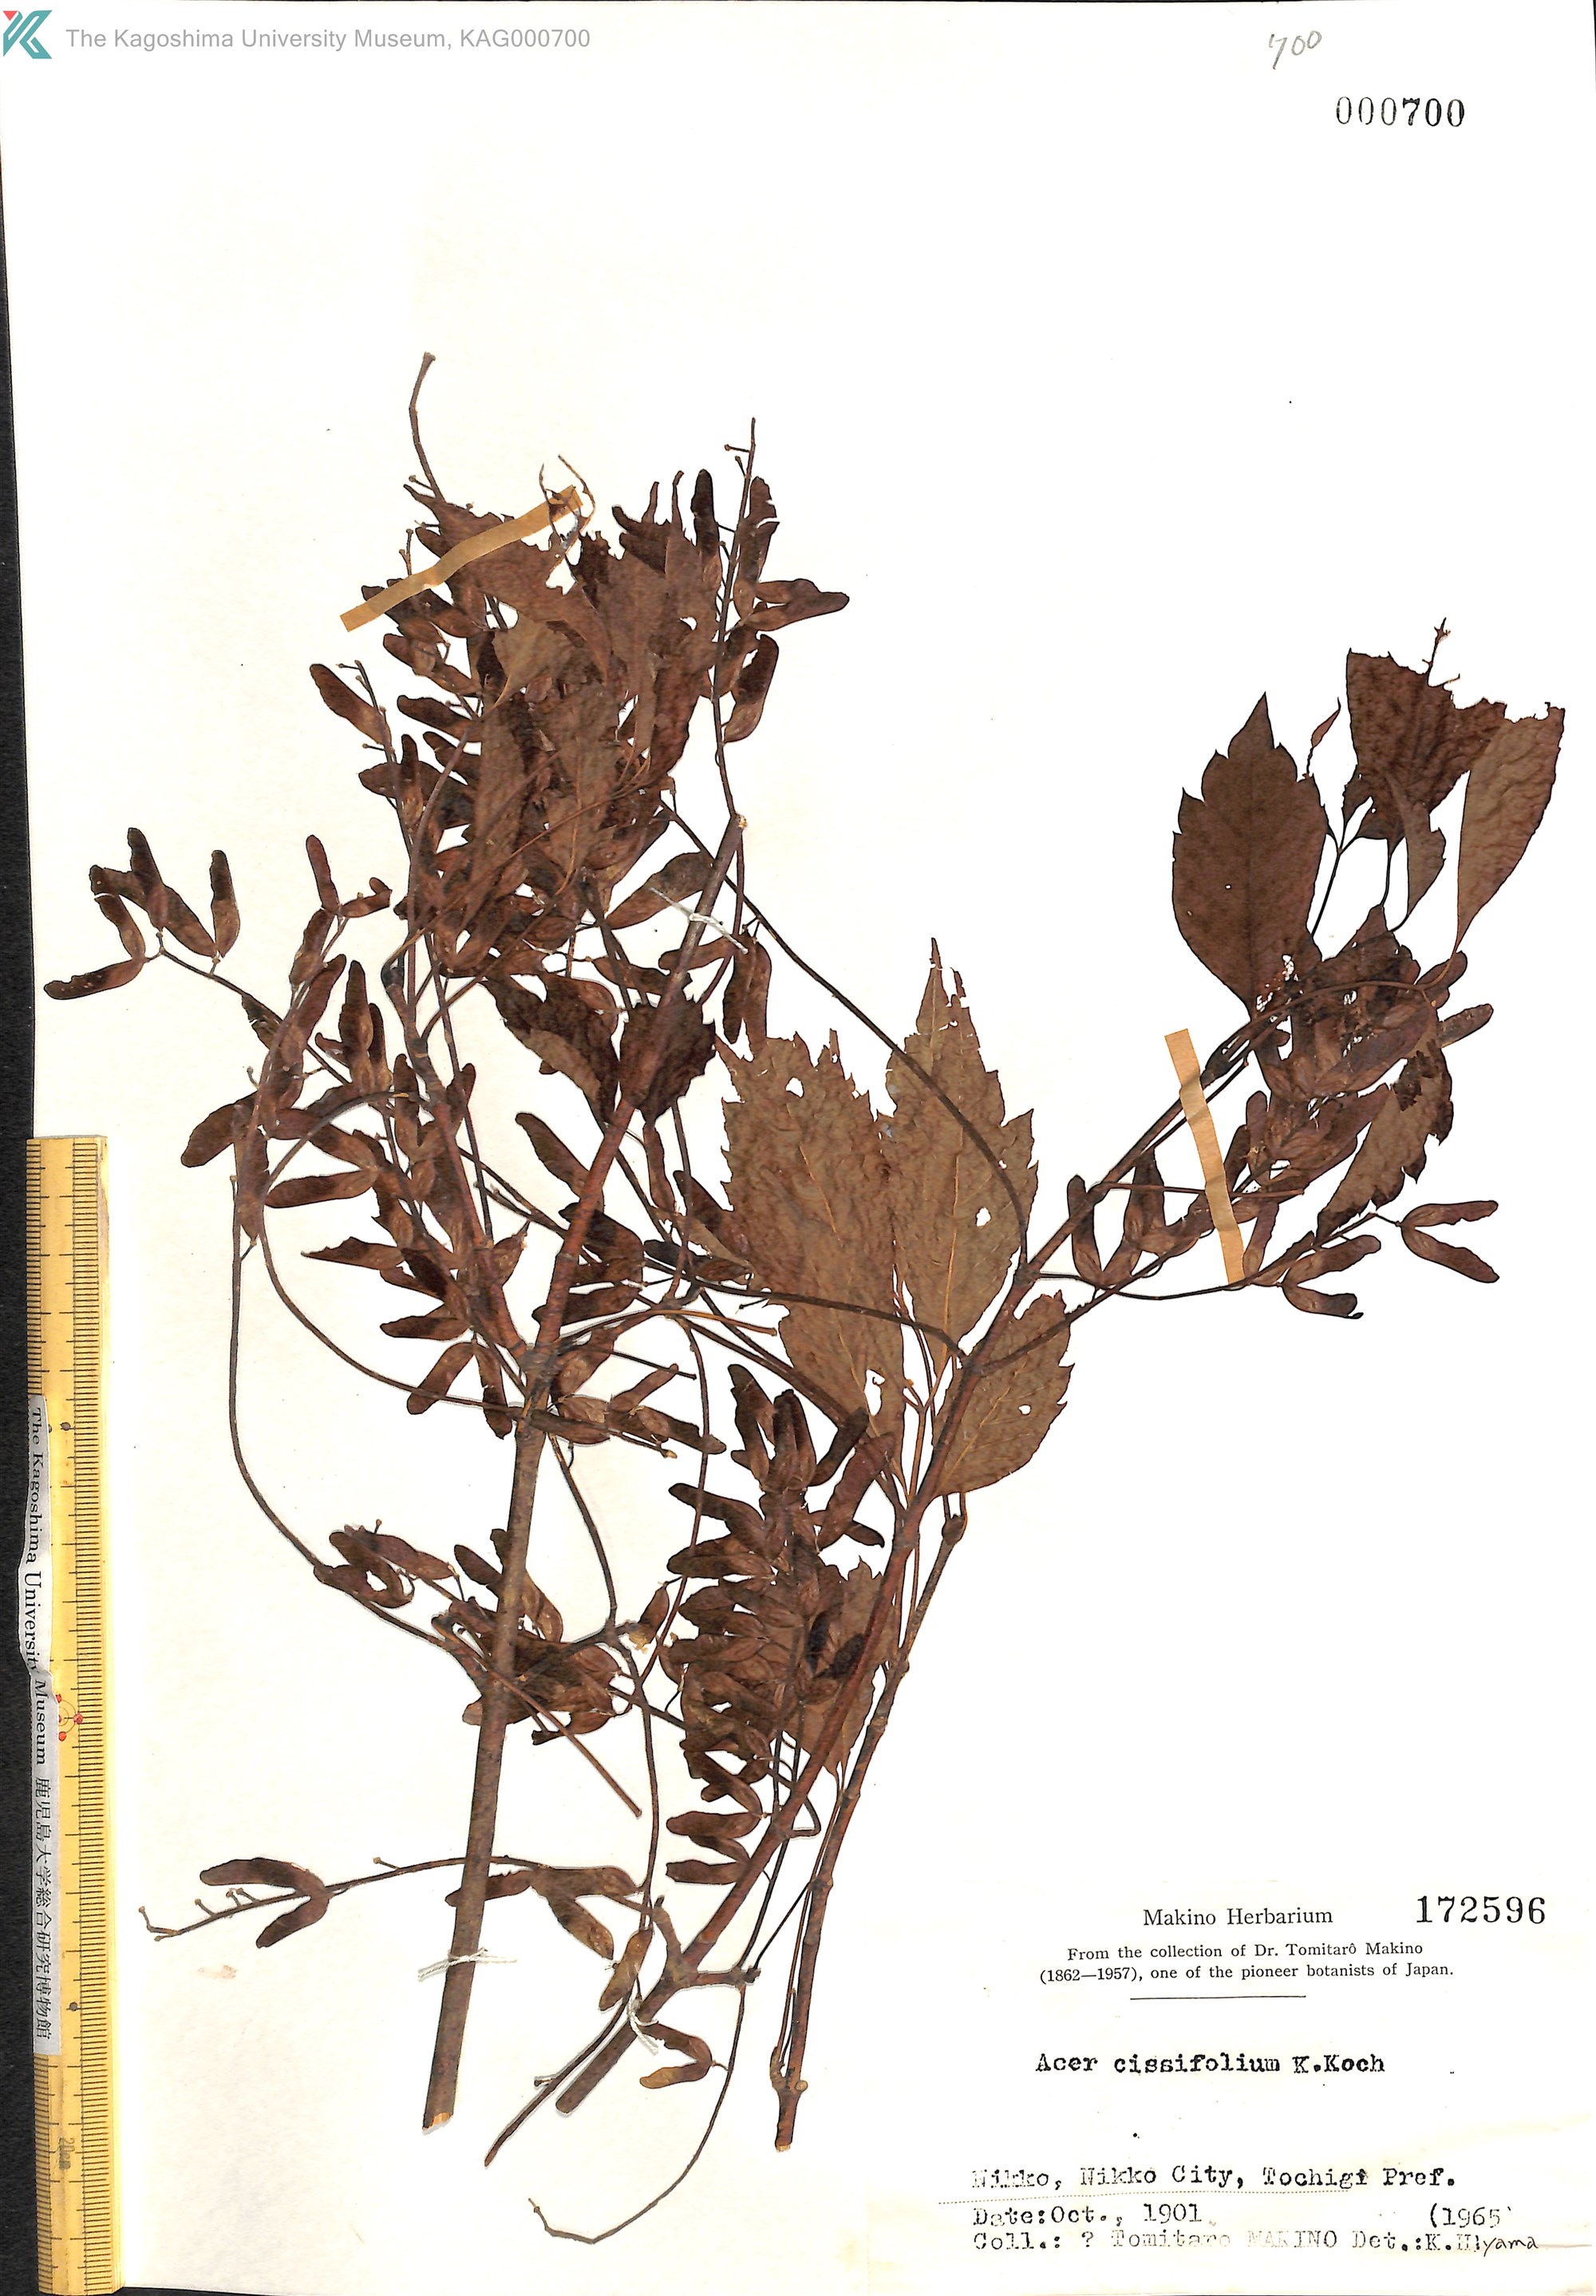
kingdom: Plantae
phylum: Tracheophyta
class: Magnoliopsida
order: Sapindales
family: Sapindaceae
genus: Acer
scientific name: Acer cissifolium
